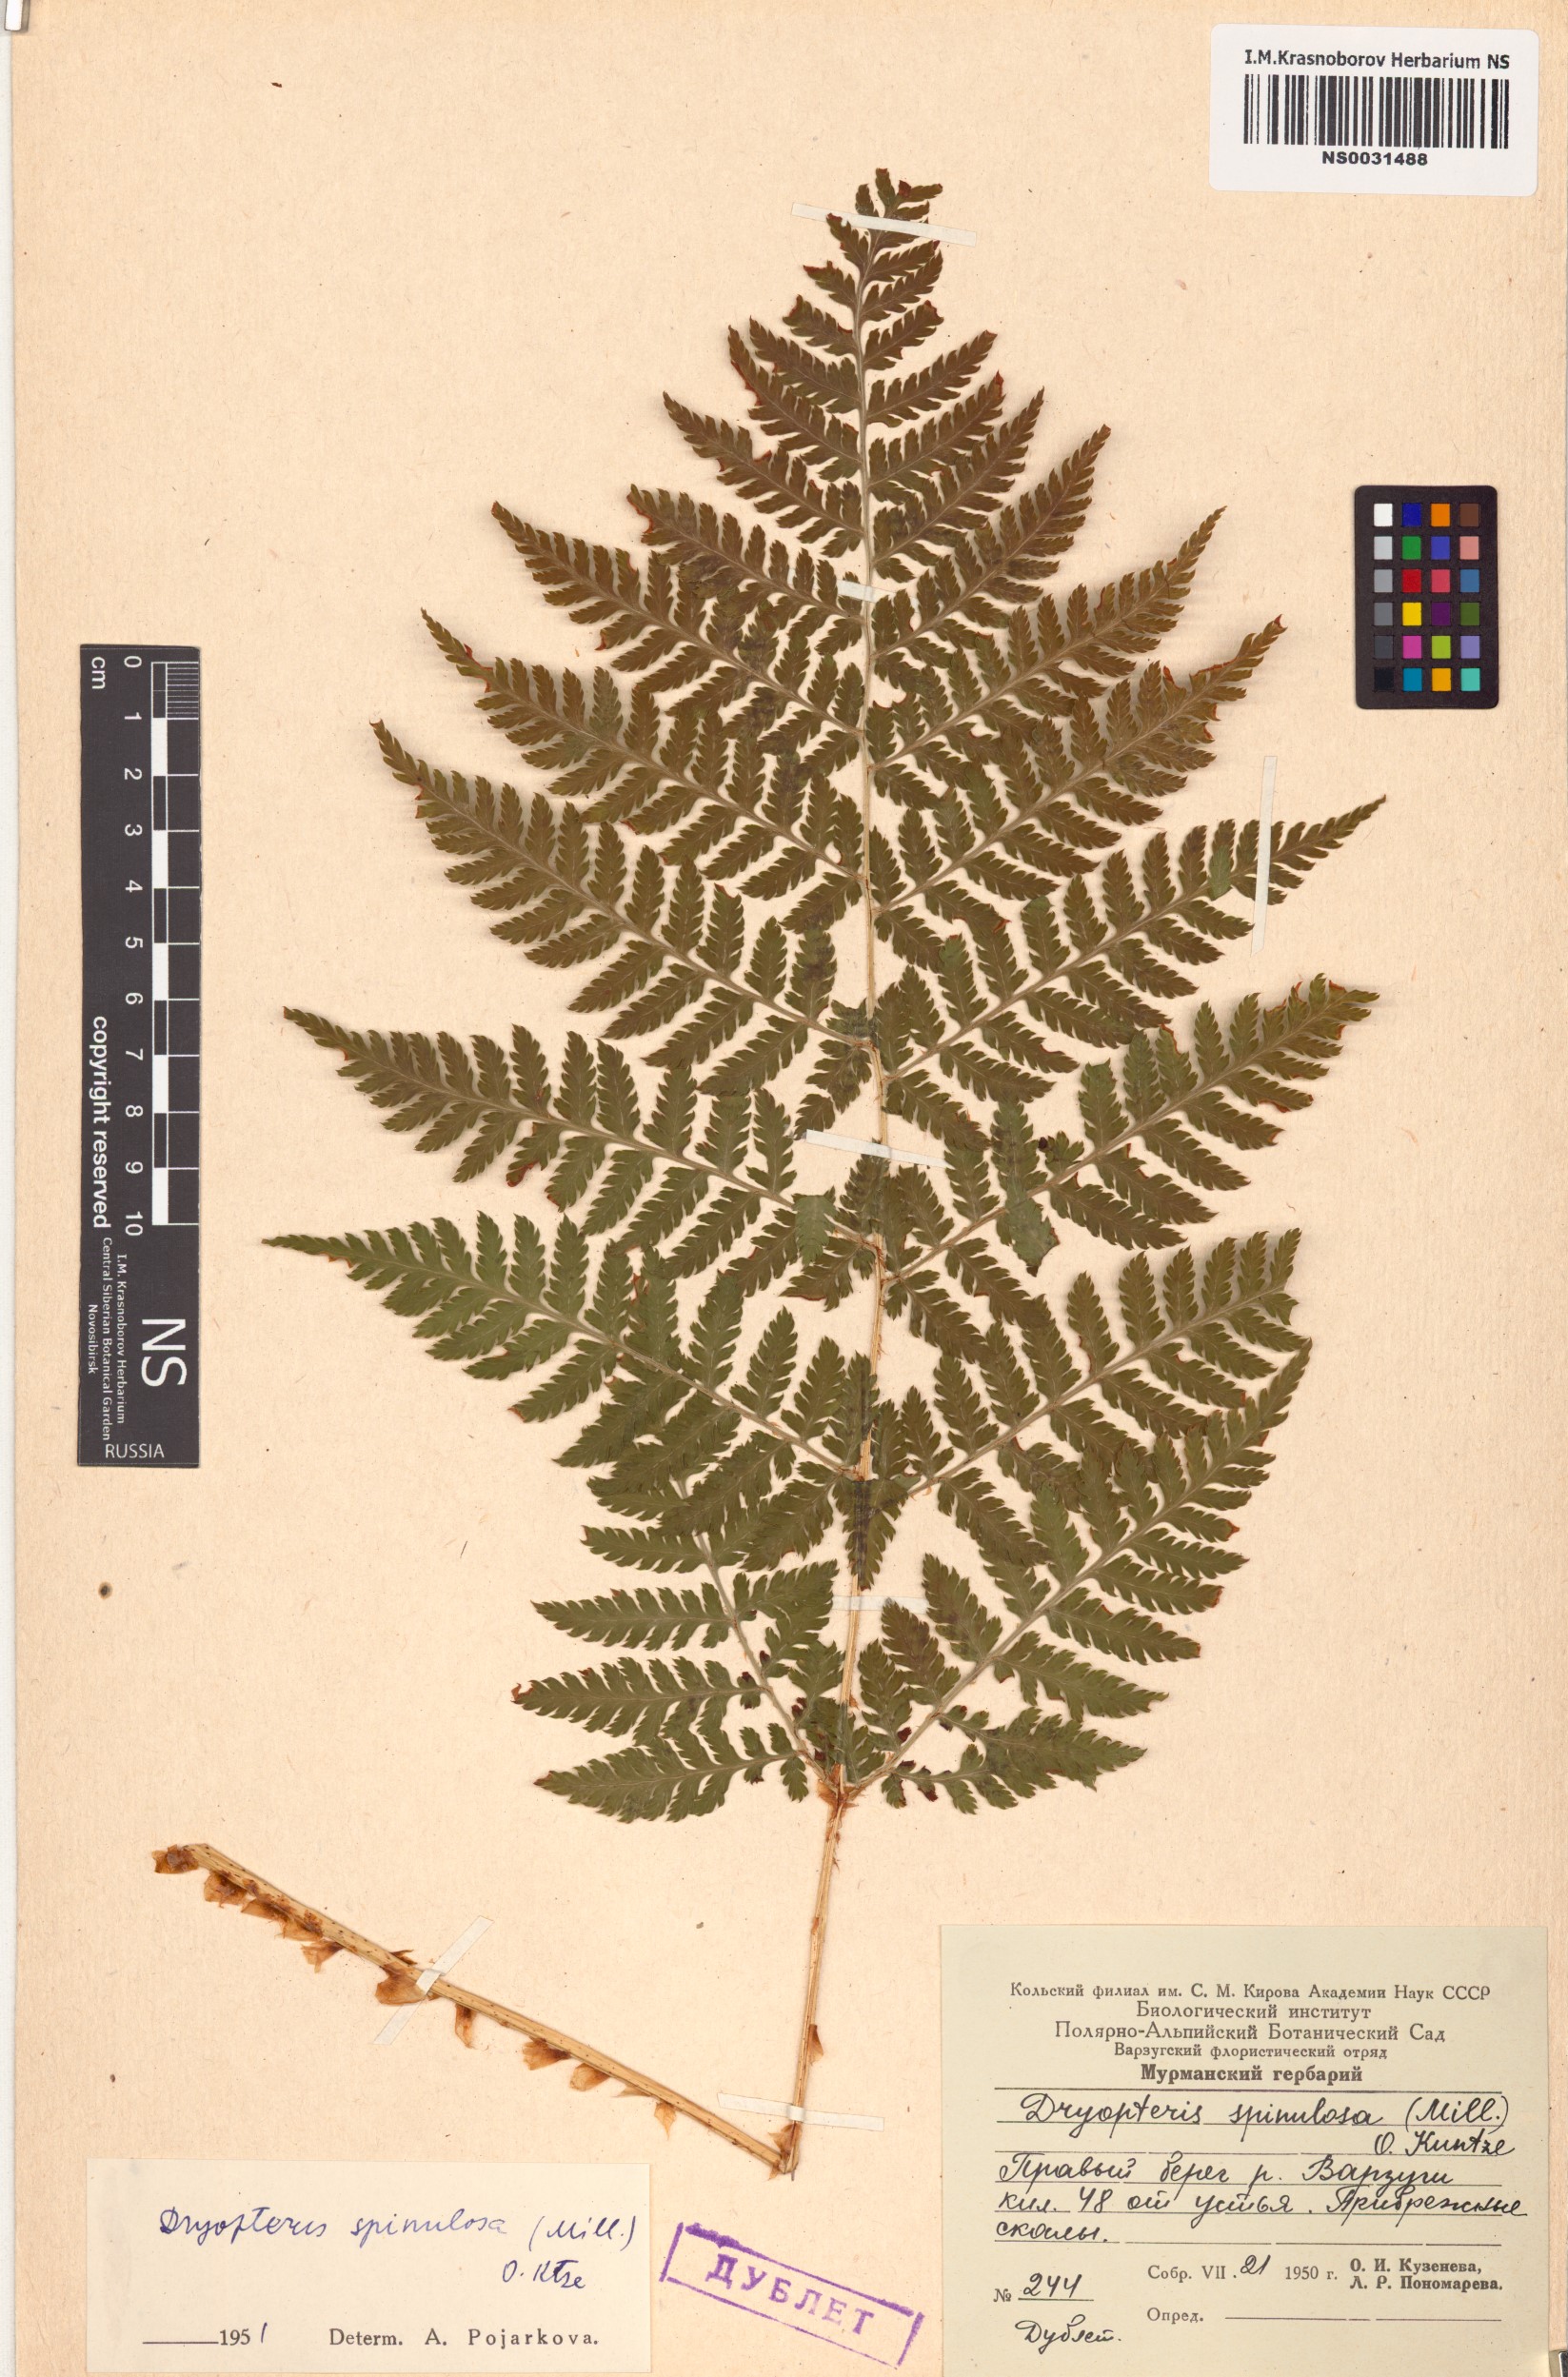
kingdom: Plantae
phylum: Tracheophyta
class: Polypodiopsida
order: Polypodiales
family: Dryopteridaceae
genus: Dryopteris
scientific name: Dryopteris carthusiana
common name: Narrow buckler-fern
